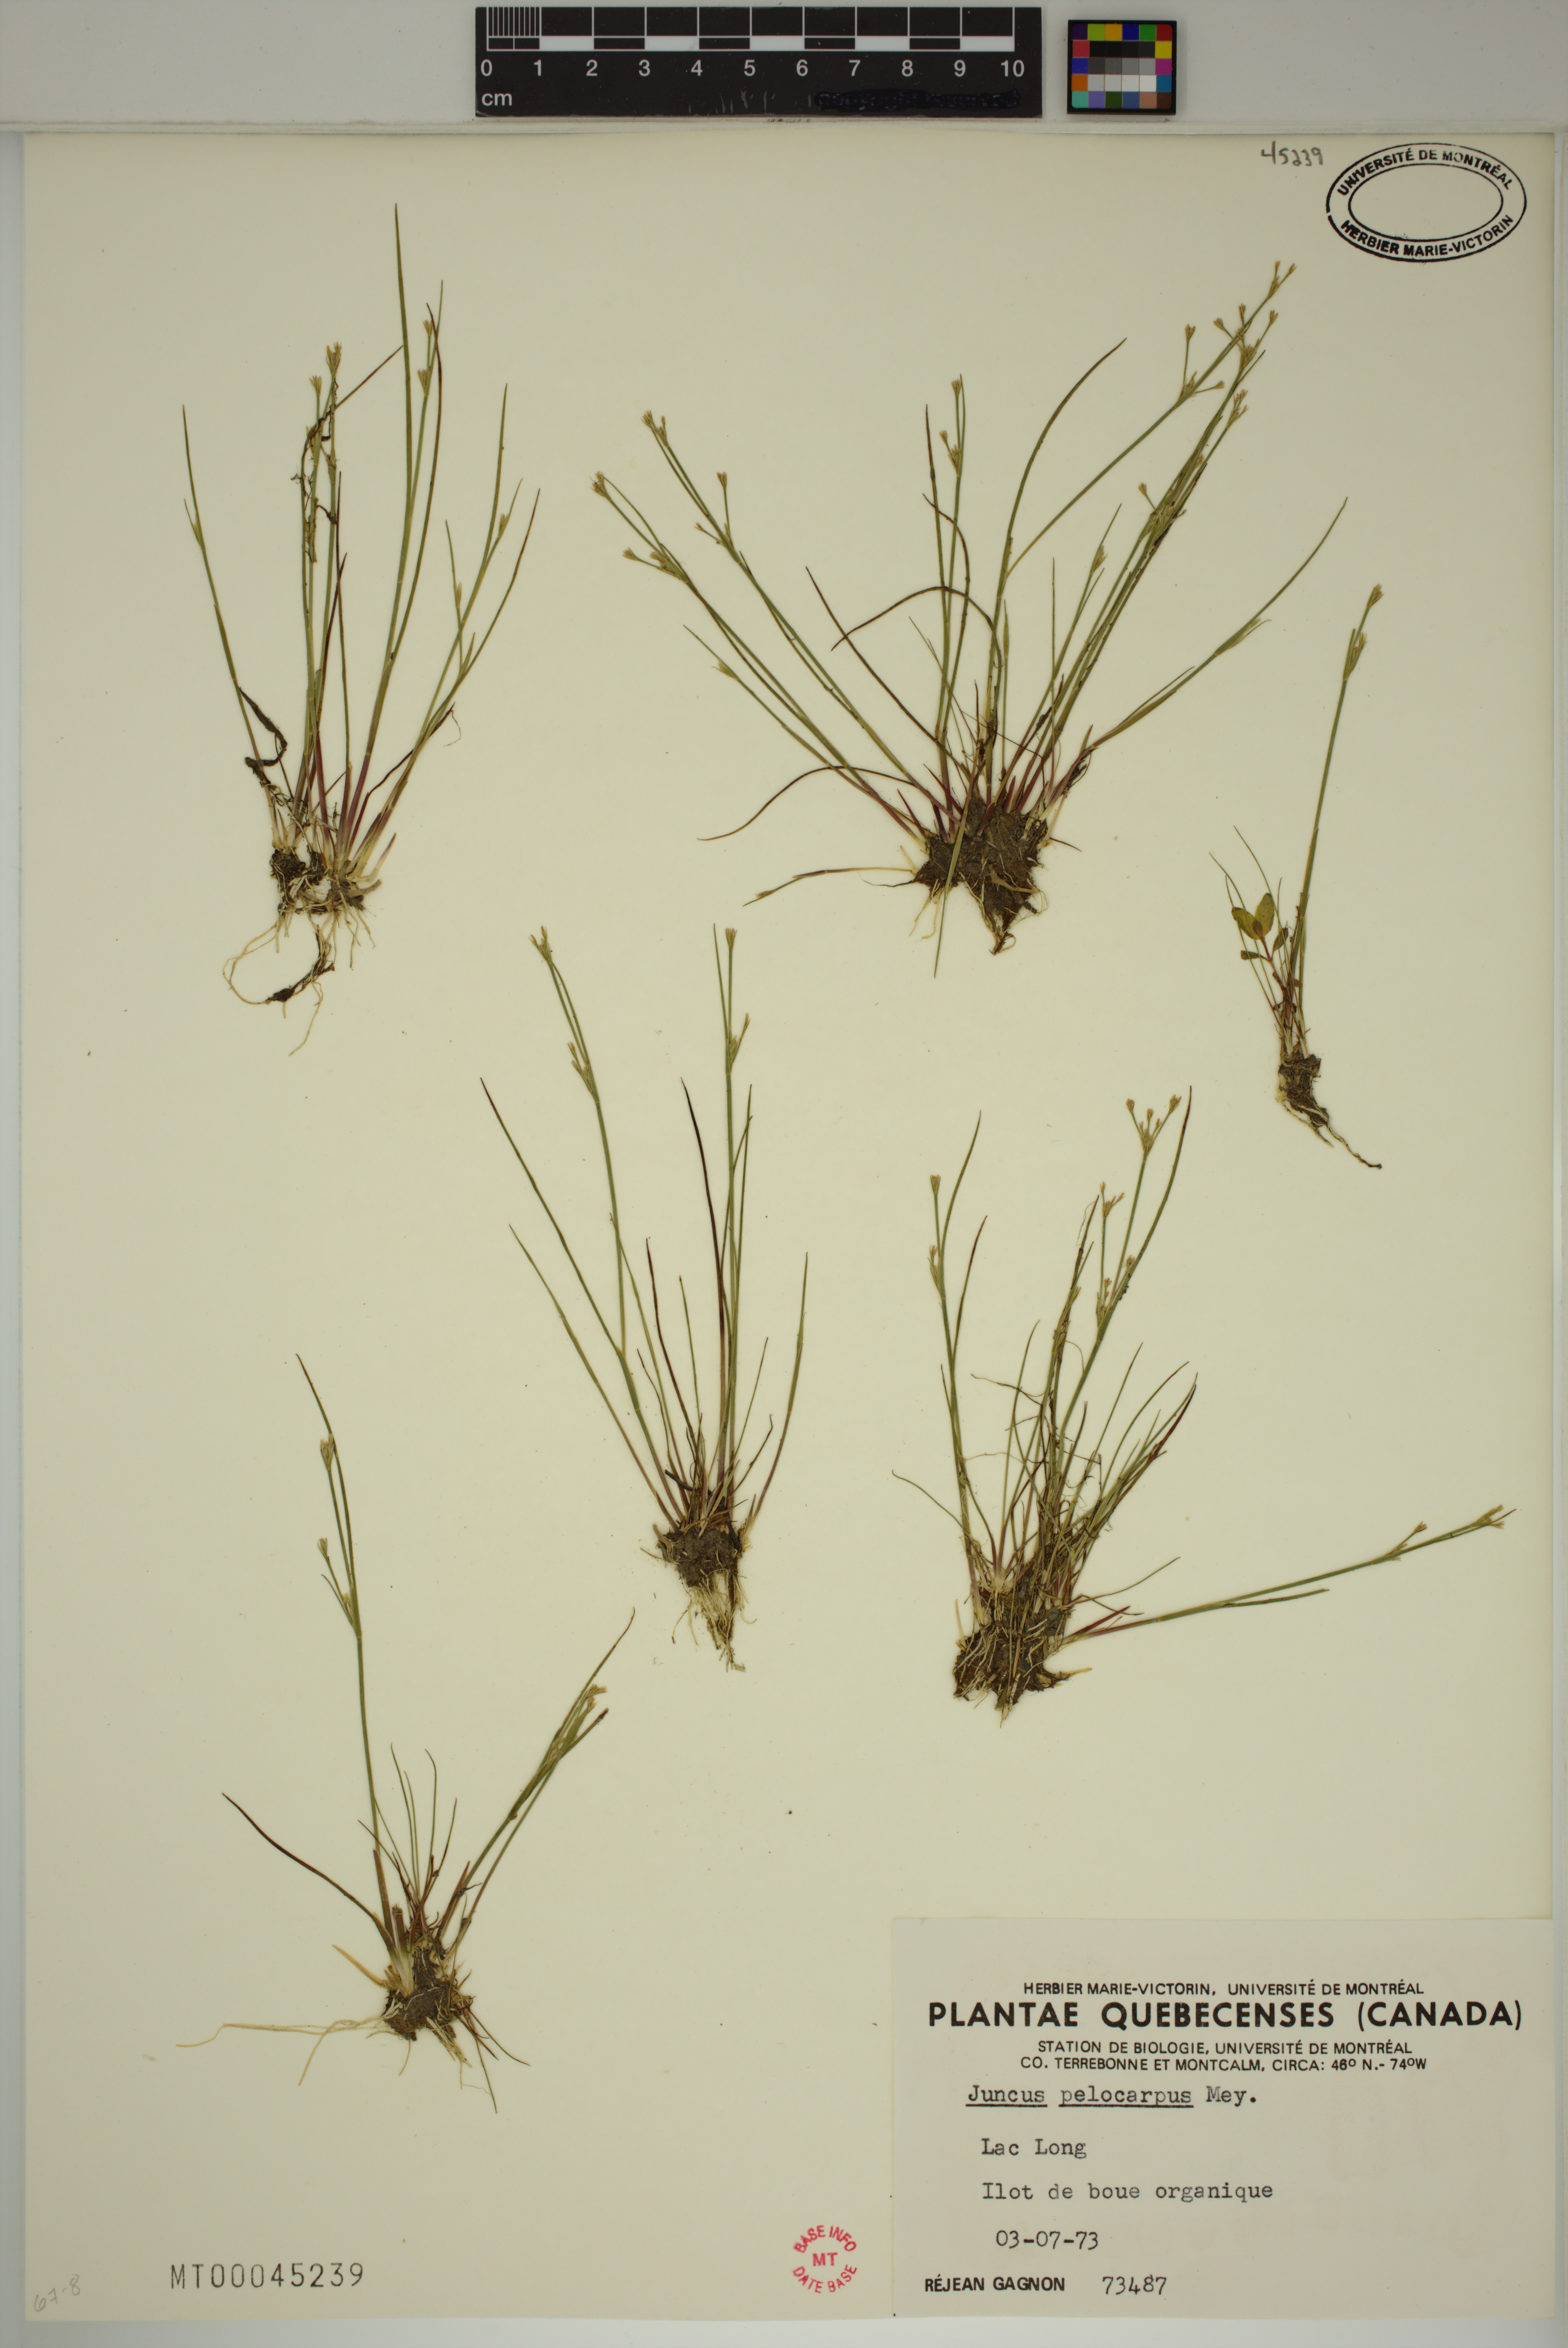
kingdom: Plantae
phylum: Tracheophyta
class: Liliopsida
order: Poales
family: Juncaceae
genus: Juncus
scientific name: Juncus pelocarpus
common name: Brown-fruited rush
